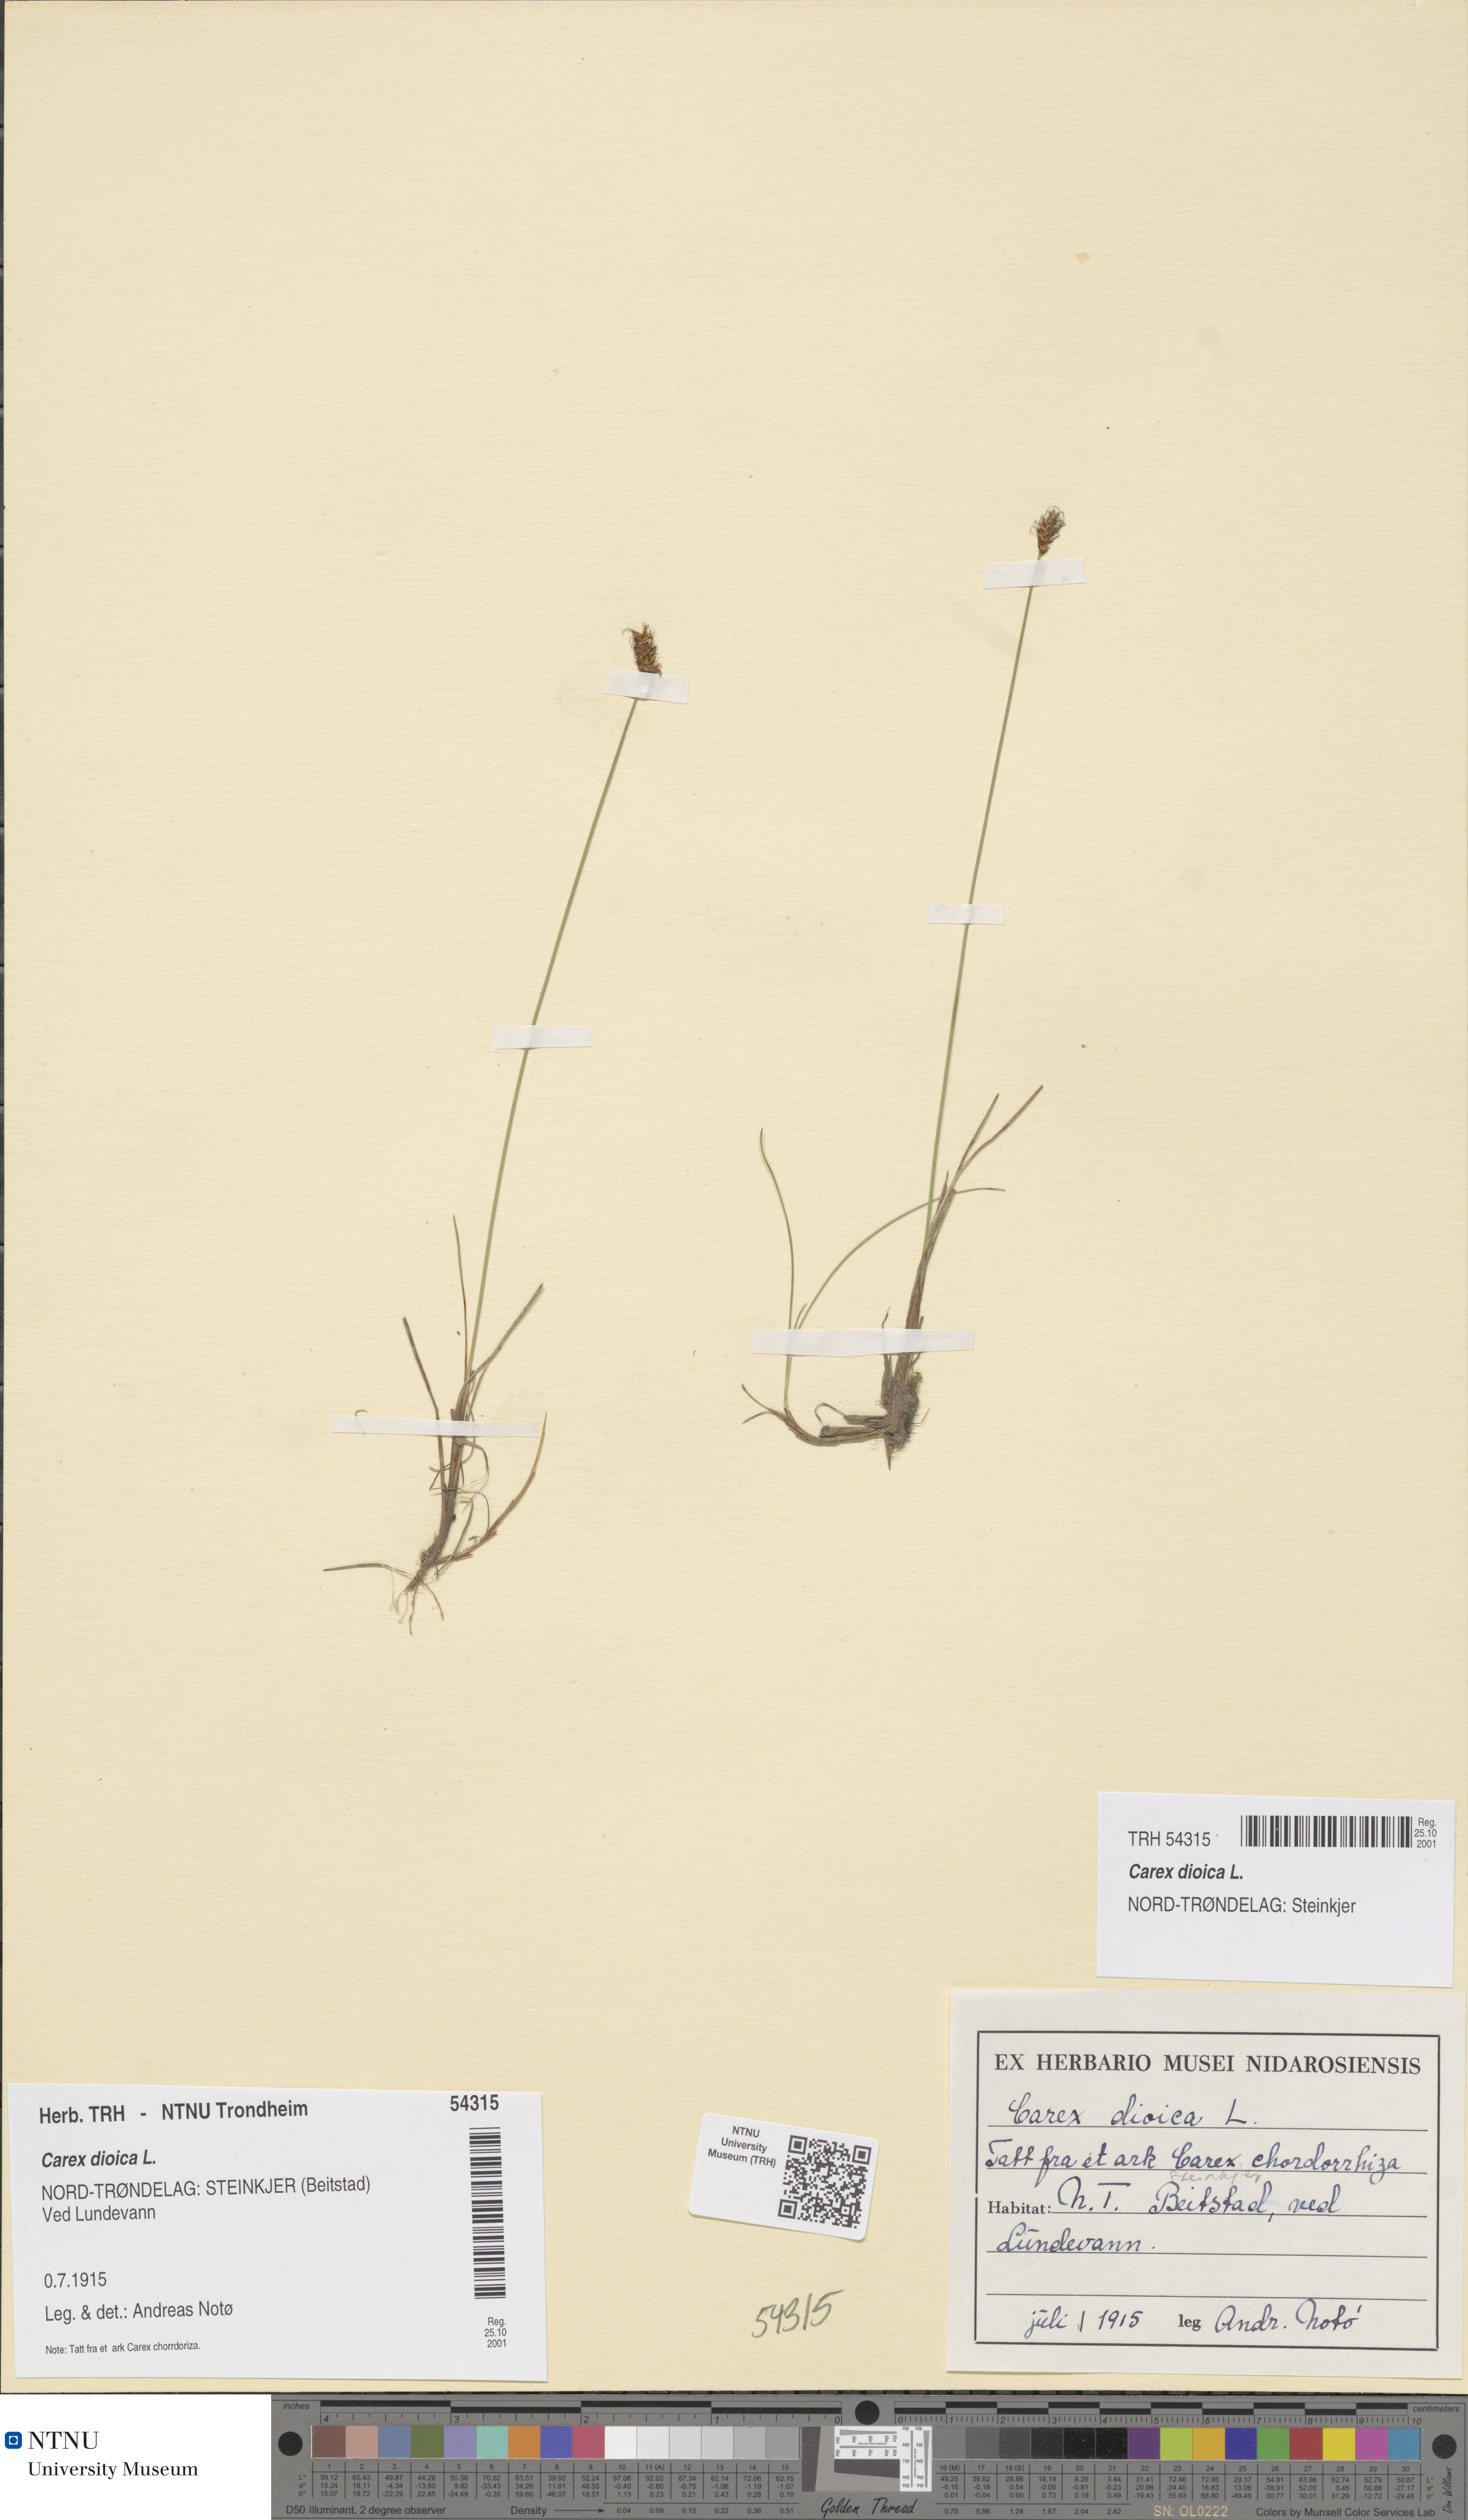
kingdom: Plantae
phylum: Tracheophyta
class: Liliopsida
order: Poales
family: Cyperaceae
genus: Carex
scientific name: Carex dioica
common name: Dioecious sedge
